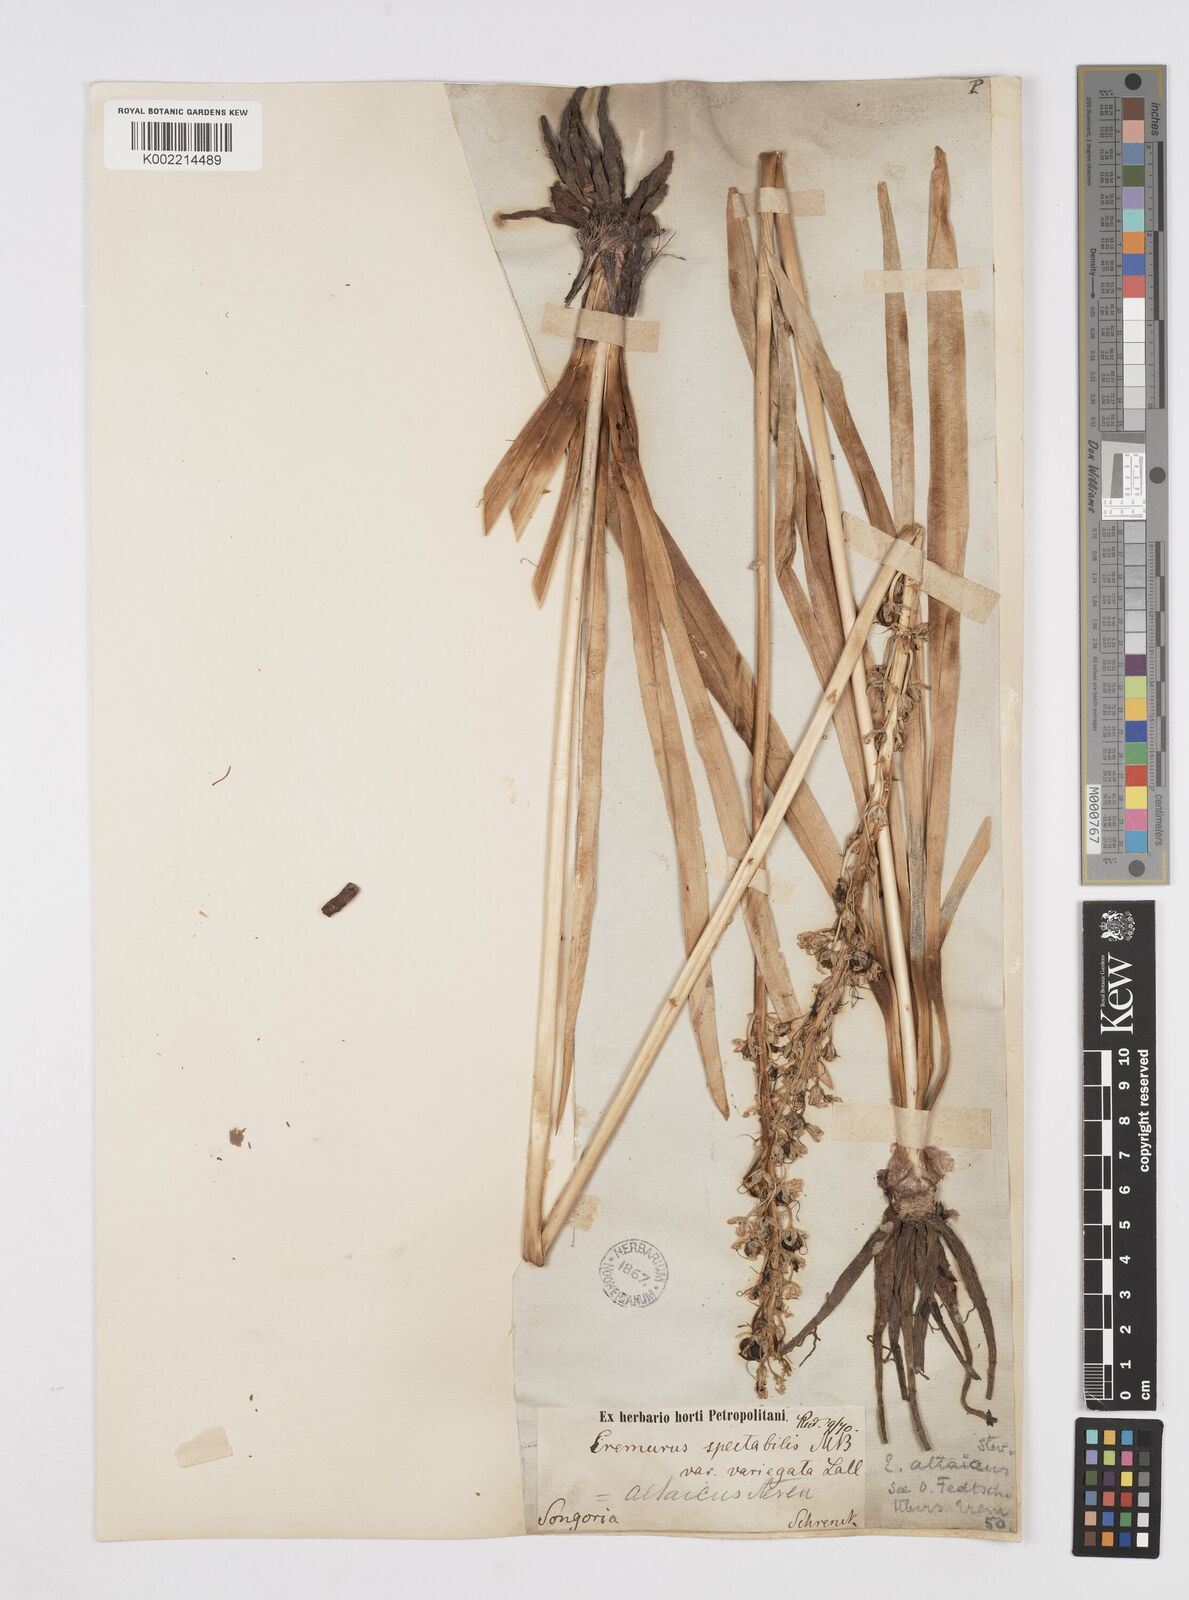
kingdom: Plantae
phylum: Tracheophyta
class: Liliopsida
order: Asparagales
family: Asphodelaceae
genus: Eremurus
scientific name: Eremurus altaicus
